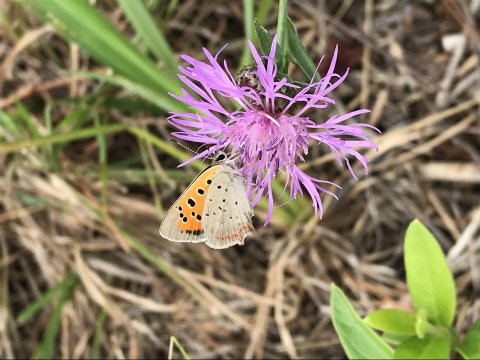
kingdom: Animalia
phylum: Arthropoda
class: Insecta
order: Lepidoptera
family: Lycaenidae
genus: Lycaena
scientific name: Lycaena phlaeas
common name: American Copper
